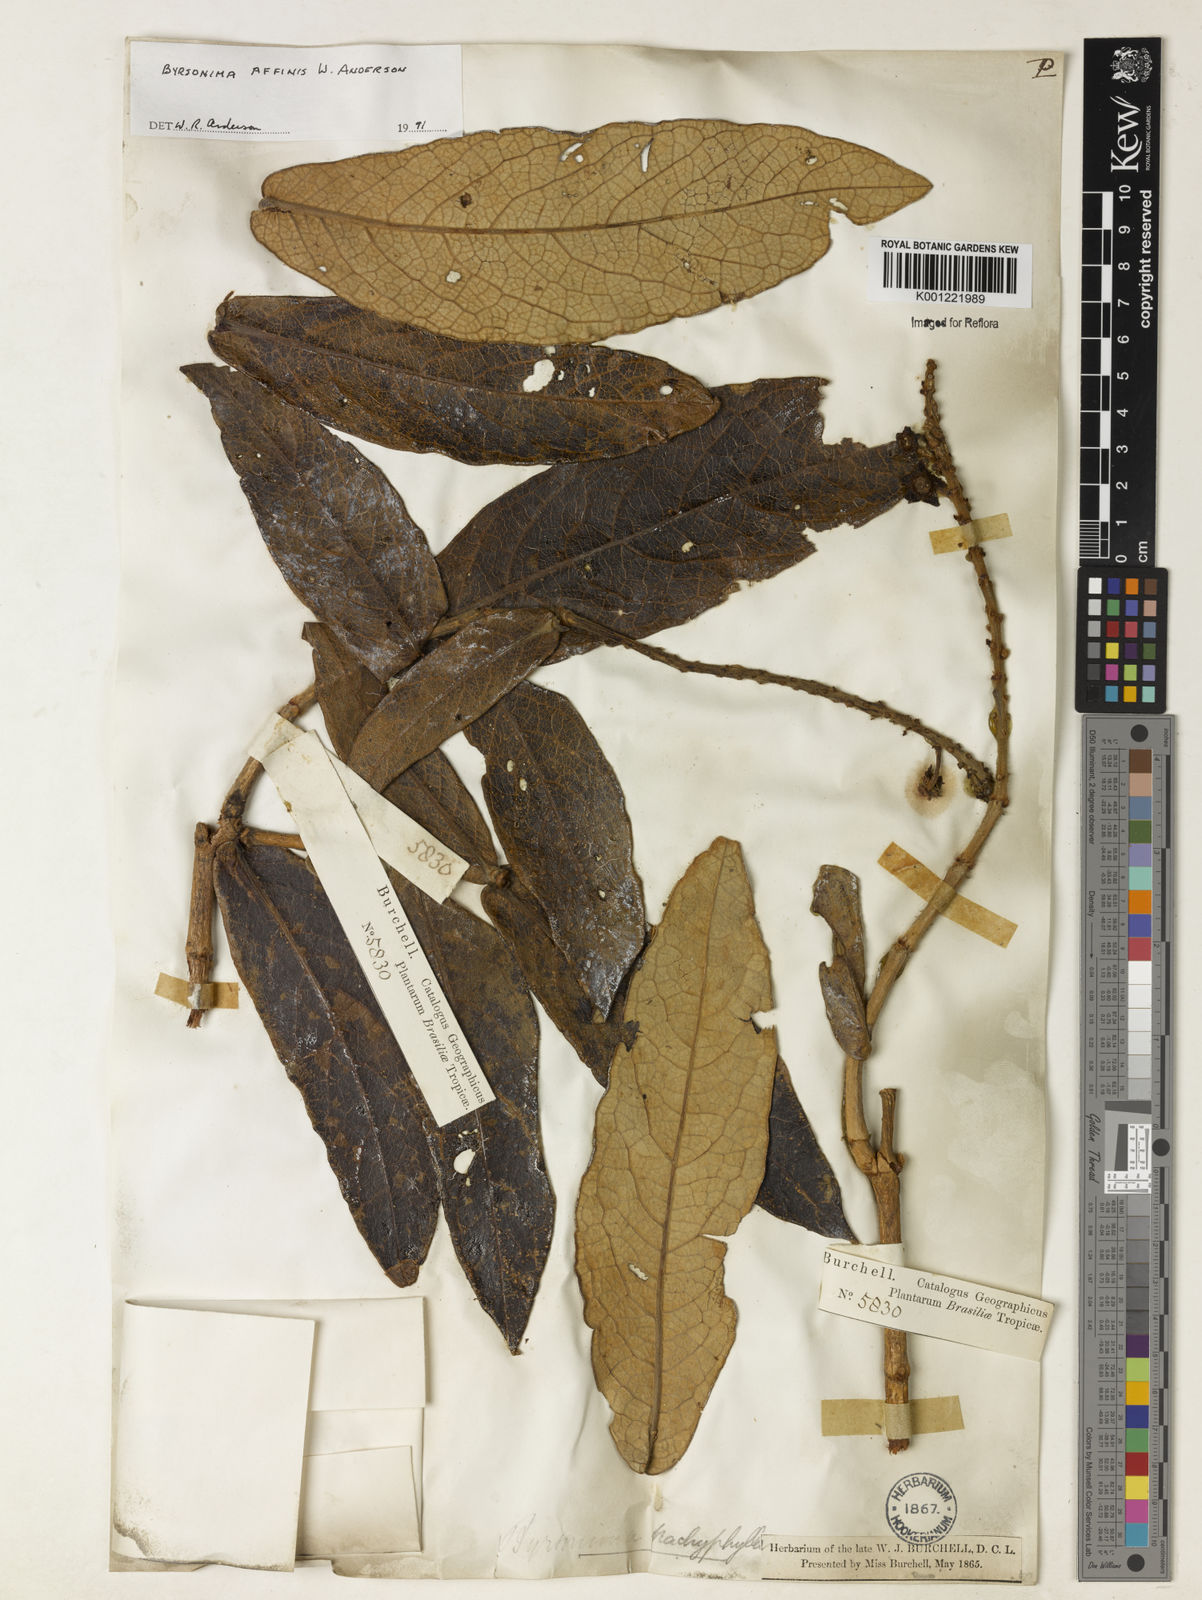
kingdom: Plantae
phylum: Tracheophyta
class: Magnoliopsida
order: Malpighiales
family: Malpighiaceae
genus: Byrsonima
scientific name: Byrsonima affinis
